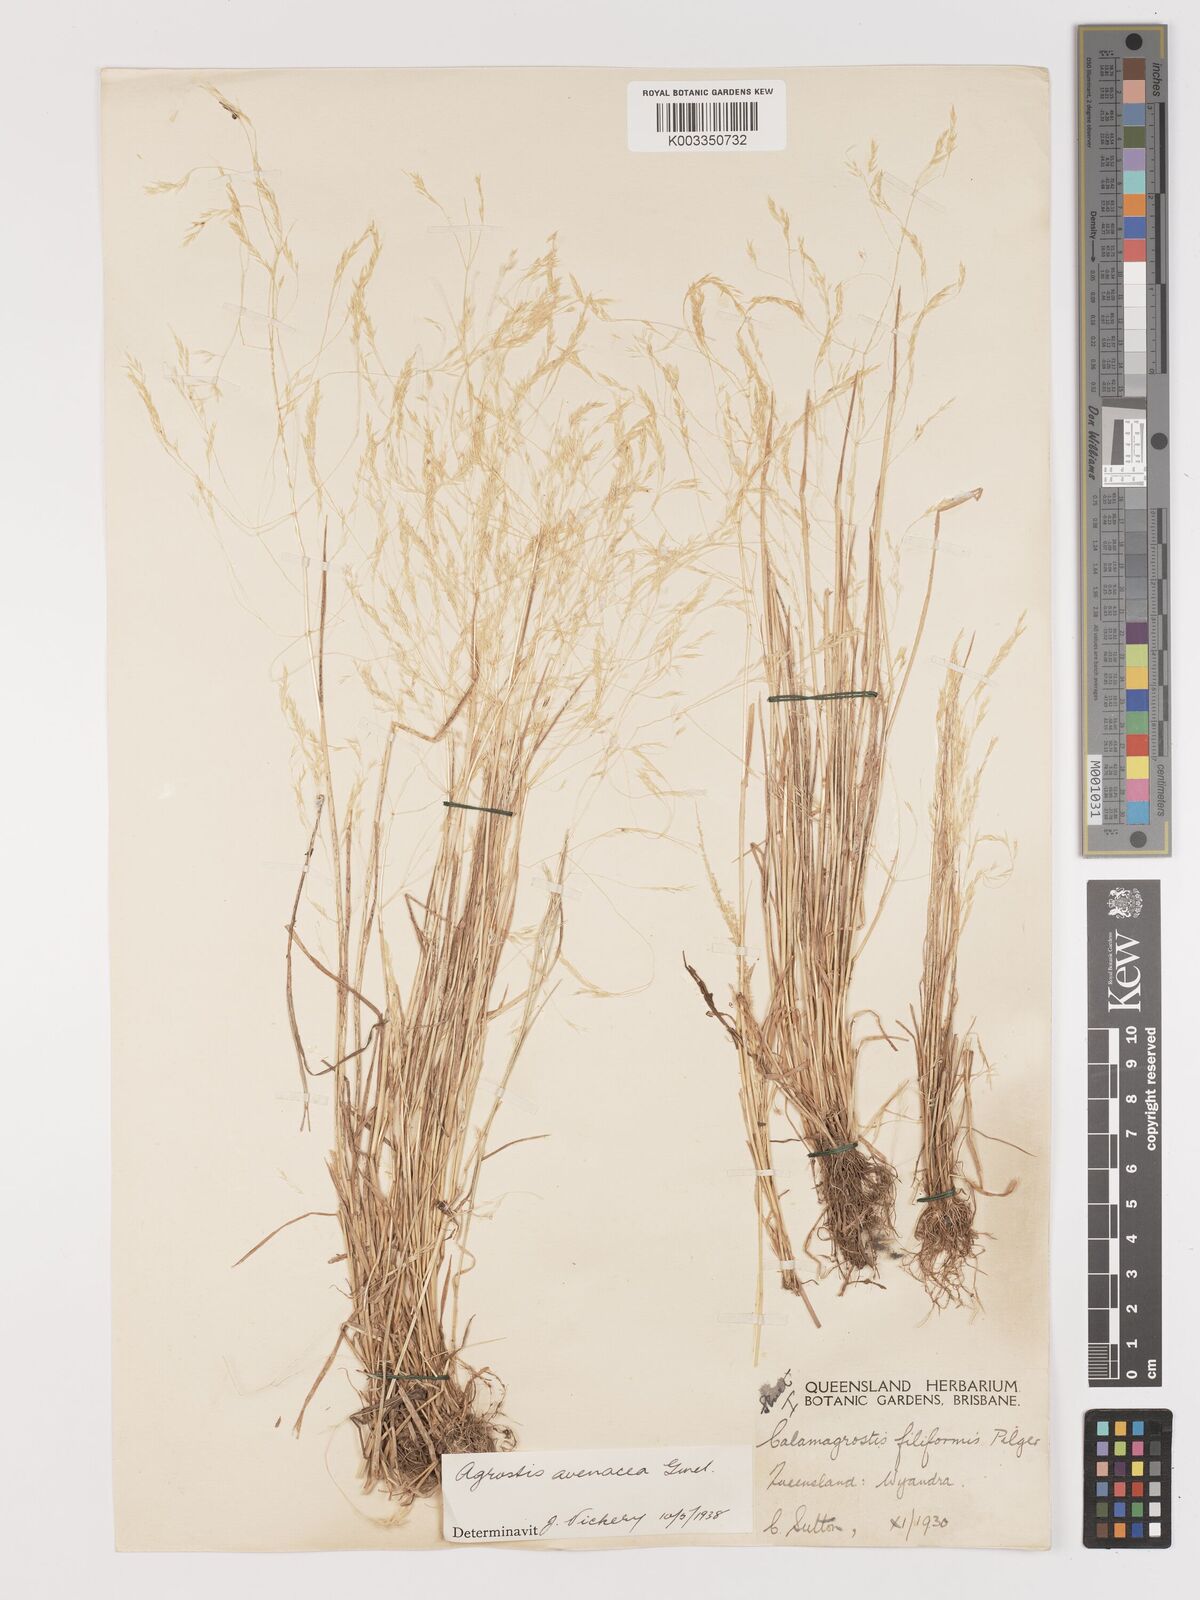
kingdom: Plantae
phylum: Tracheophyta
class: Liliopsida
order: Poales
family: Poaceae
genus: Lachnagrostis
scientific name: Lachnagrostis filiformis
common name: Bentgrass
